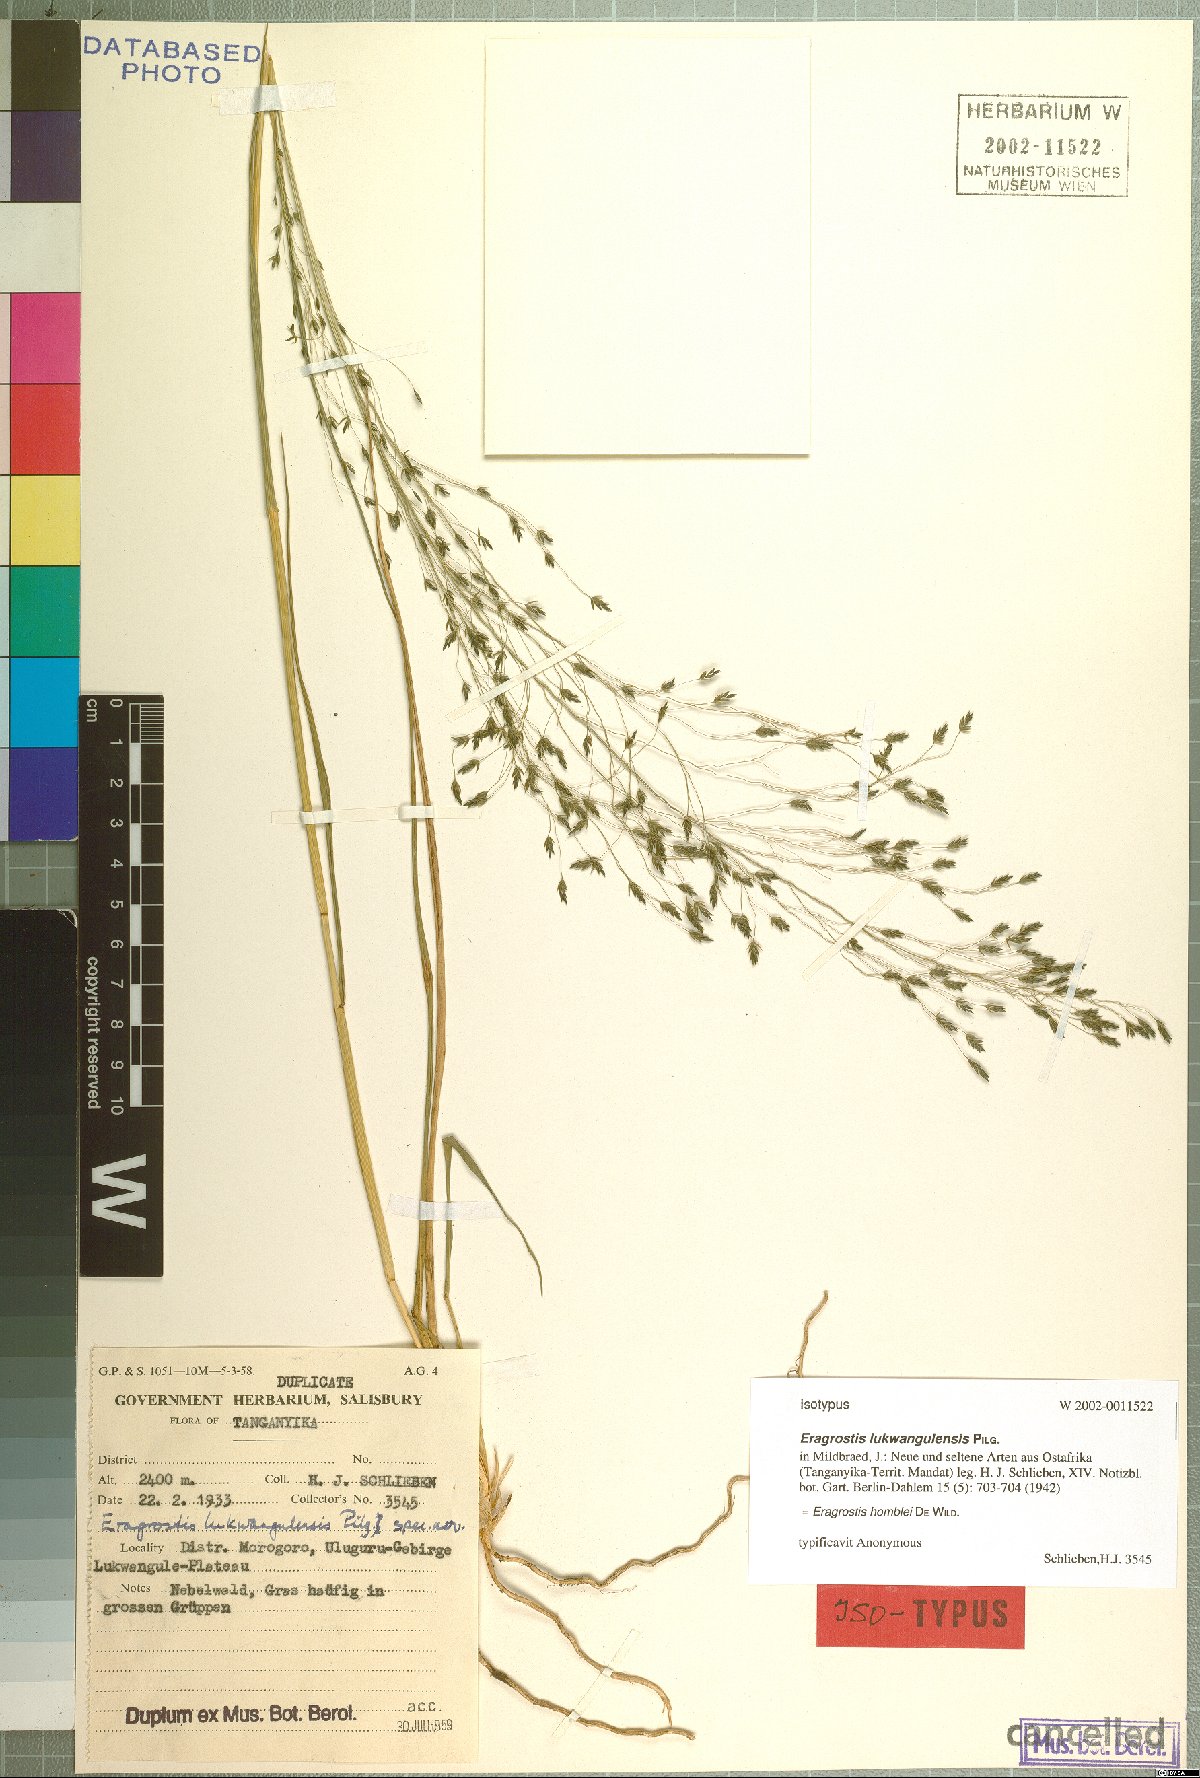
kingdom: Plantae
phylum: Tracheophyta
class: Liliopsida
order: Poales
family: Poaceae
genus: Eragrostis
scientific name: Eragrostis homblei
